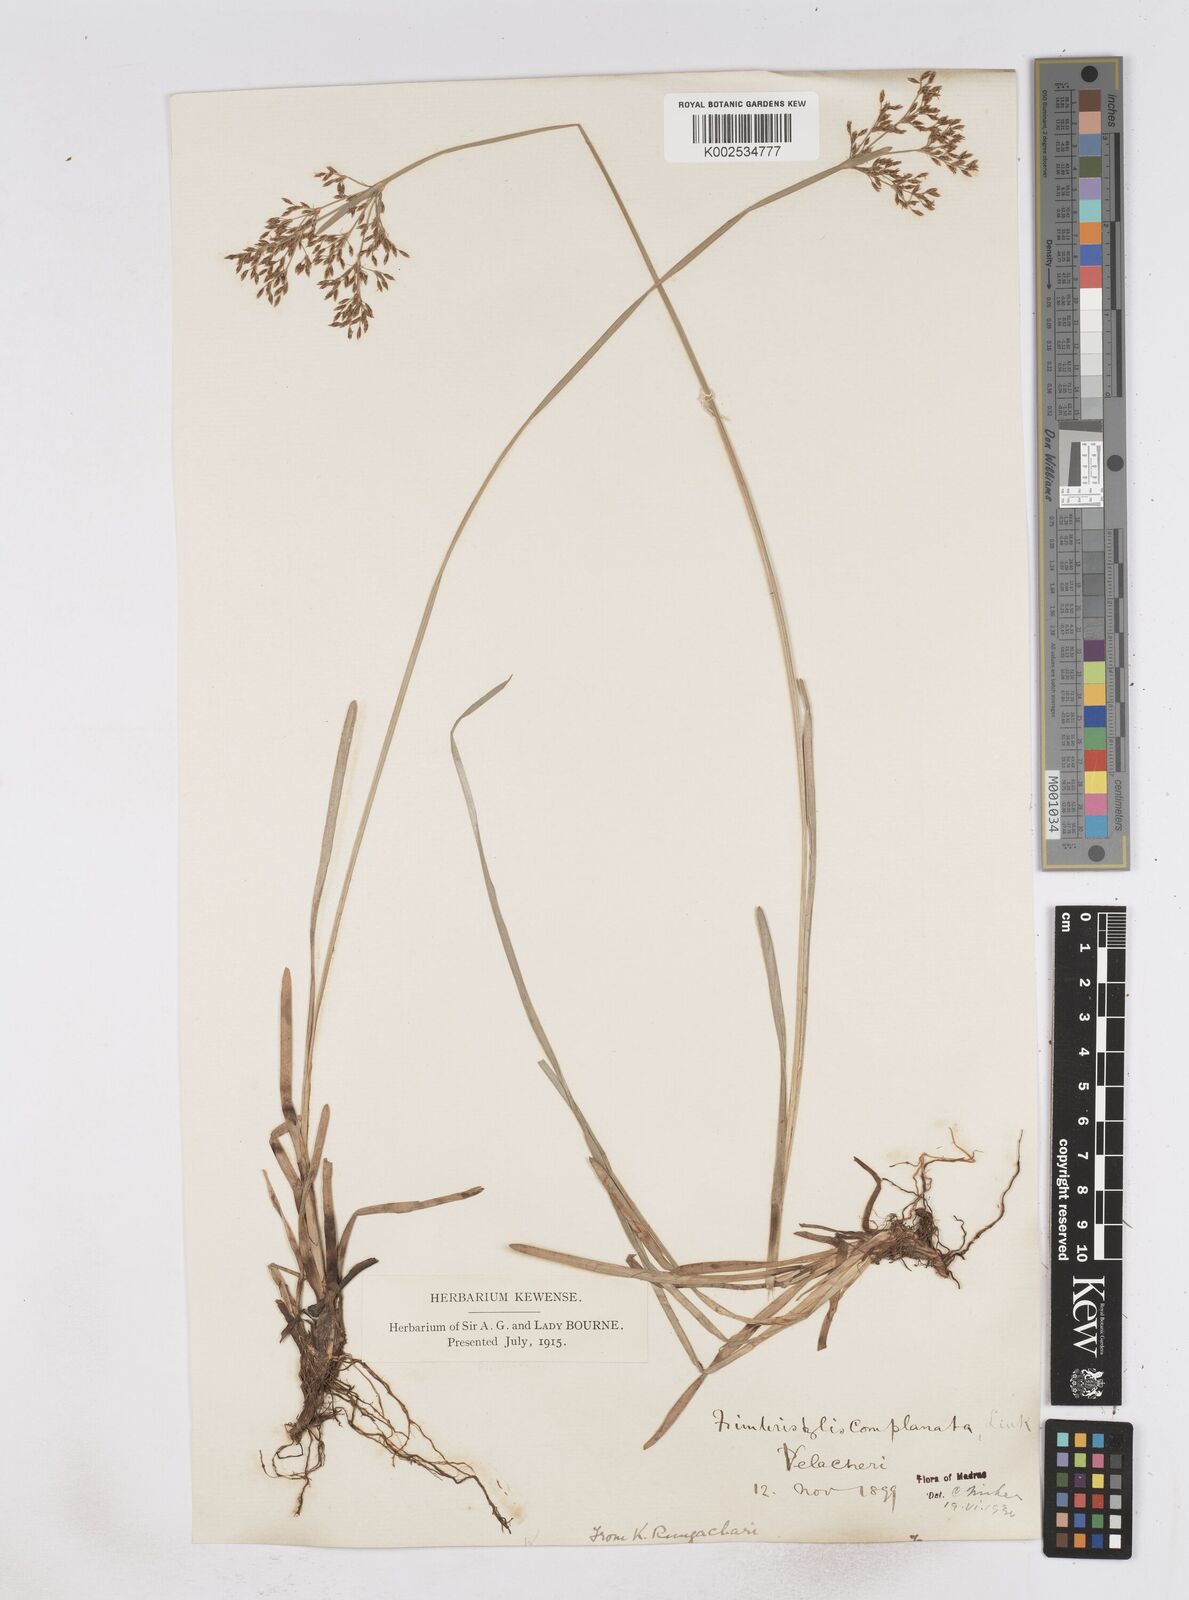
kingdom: Plantae
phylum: Tracheophyta
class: Liliopsida
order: Poales
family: Cyperaceae
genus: Fimbristylis
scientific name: Fimbristylis complanata
